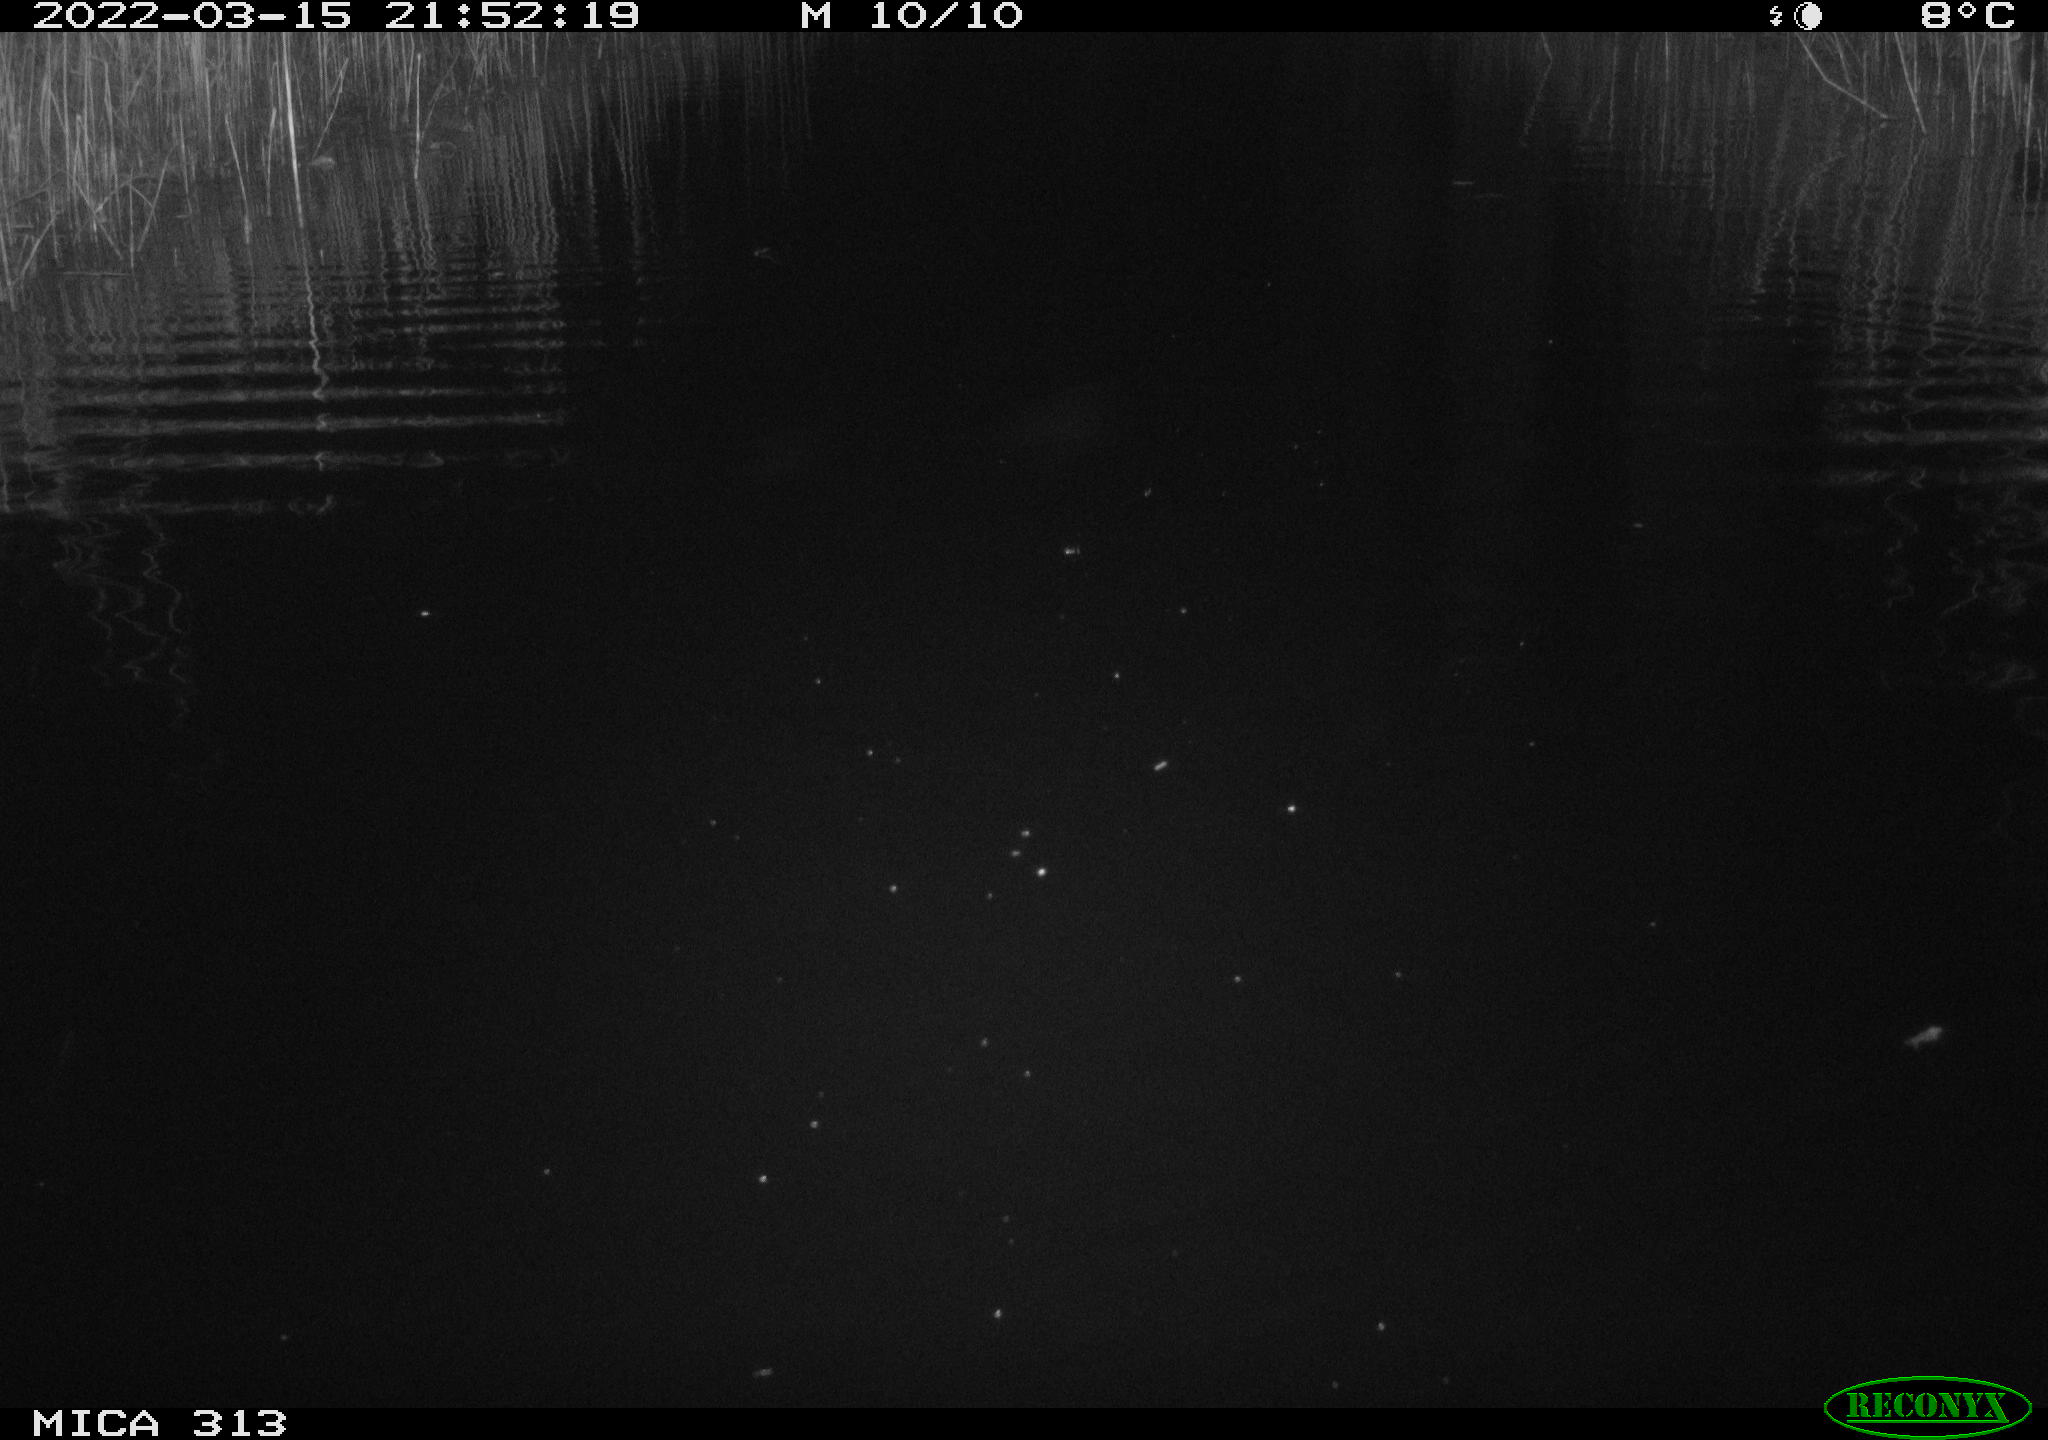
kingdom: Animalia
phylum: Chordata
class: Mammalia
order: Rodentia
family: Cricetidae
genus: Ondatra
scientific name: Ondatra zibethicus
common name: Muskrat
